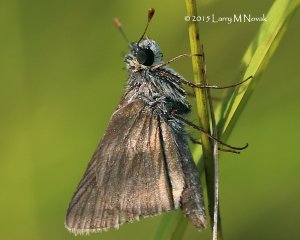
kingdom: Animalia
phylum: Arthropoda
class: Insecta
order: Lepidoptera
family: Hesperiidae
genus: Euphyes
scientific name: Euphyes vestris
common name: Dun Skipper
